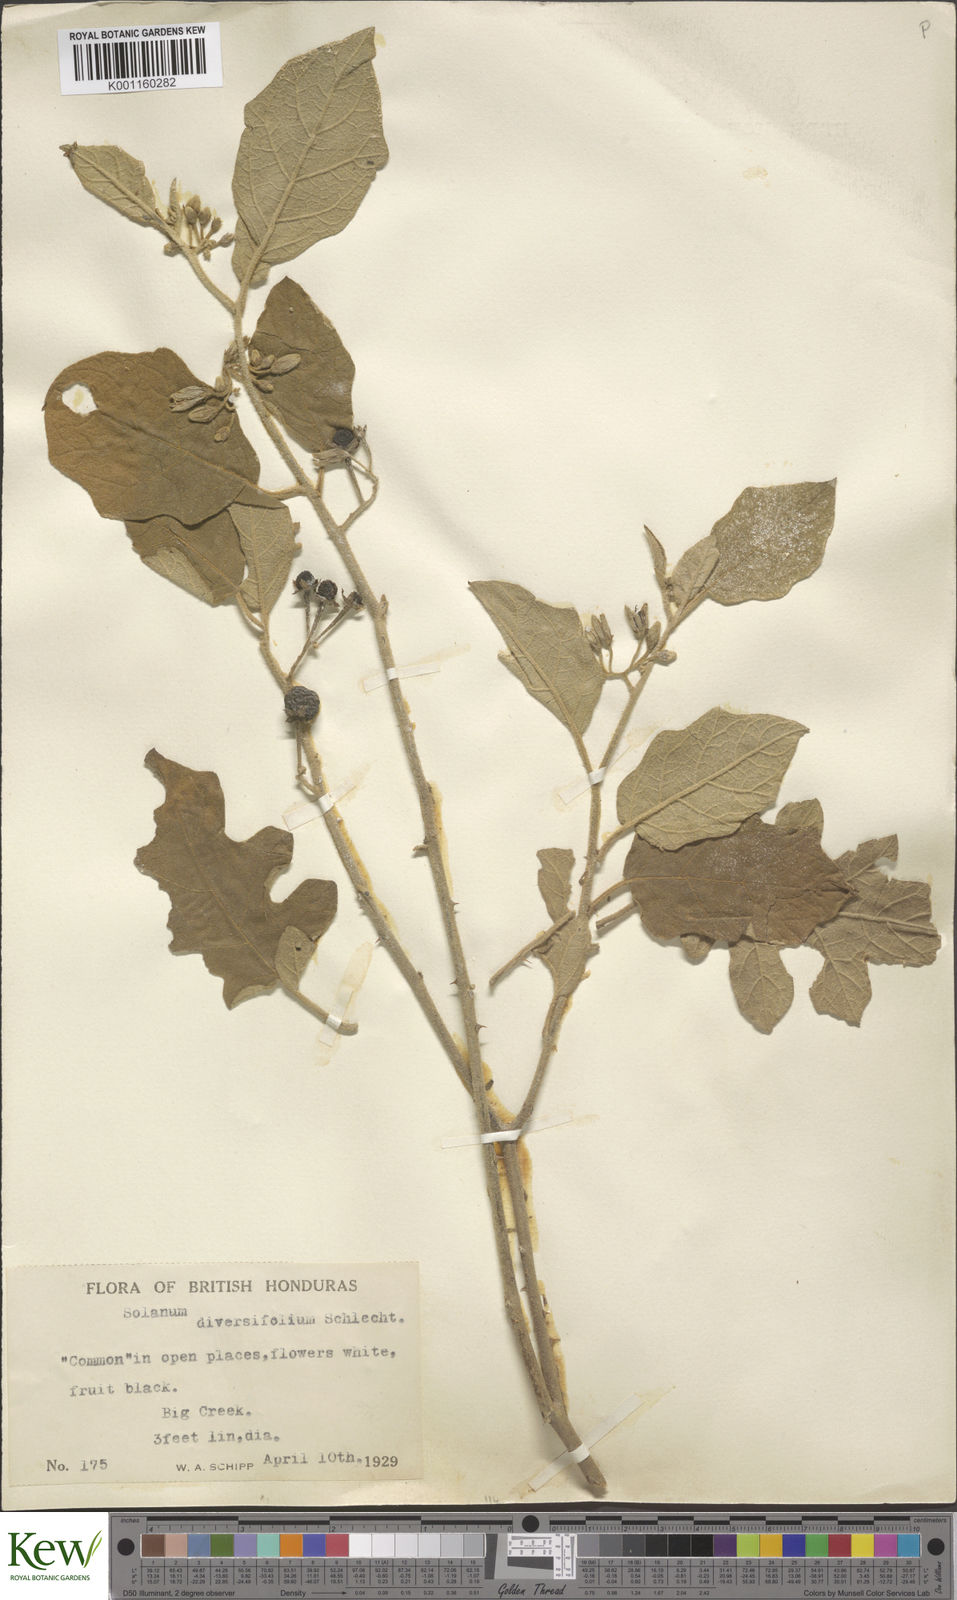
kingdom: Plantae
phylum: Tracheophyta
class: Magnoliopsida
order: Solanales
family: Solanaceae
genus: Solanum
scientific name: Solanum melissarum
